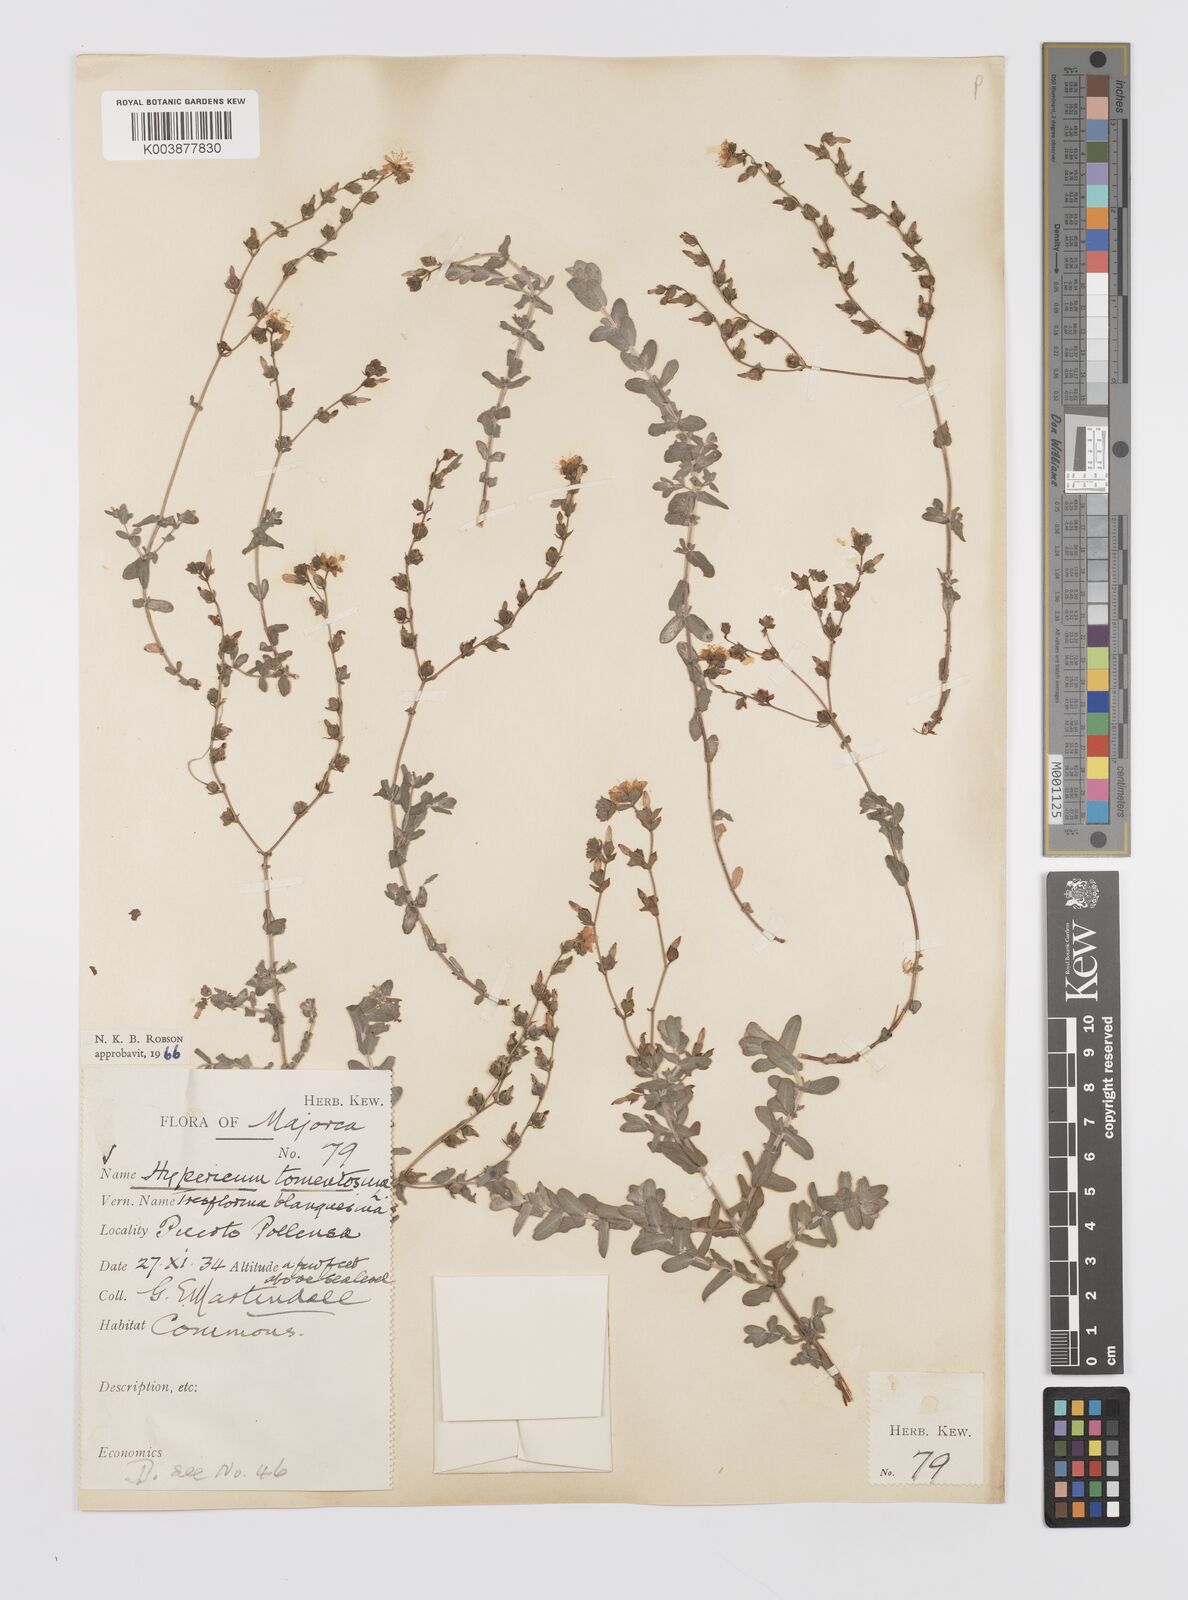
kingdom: Plantae
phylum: Tracheophyta
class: Magnoliopsida
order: Malpighiales
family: Hypericaceae
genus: Hypericum
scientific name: Hypericum tomentosum
